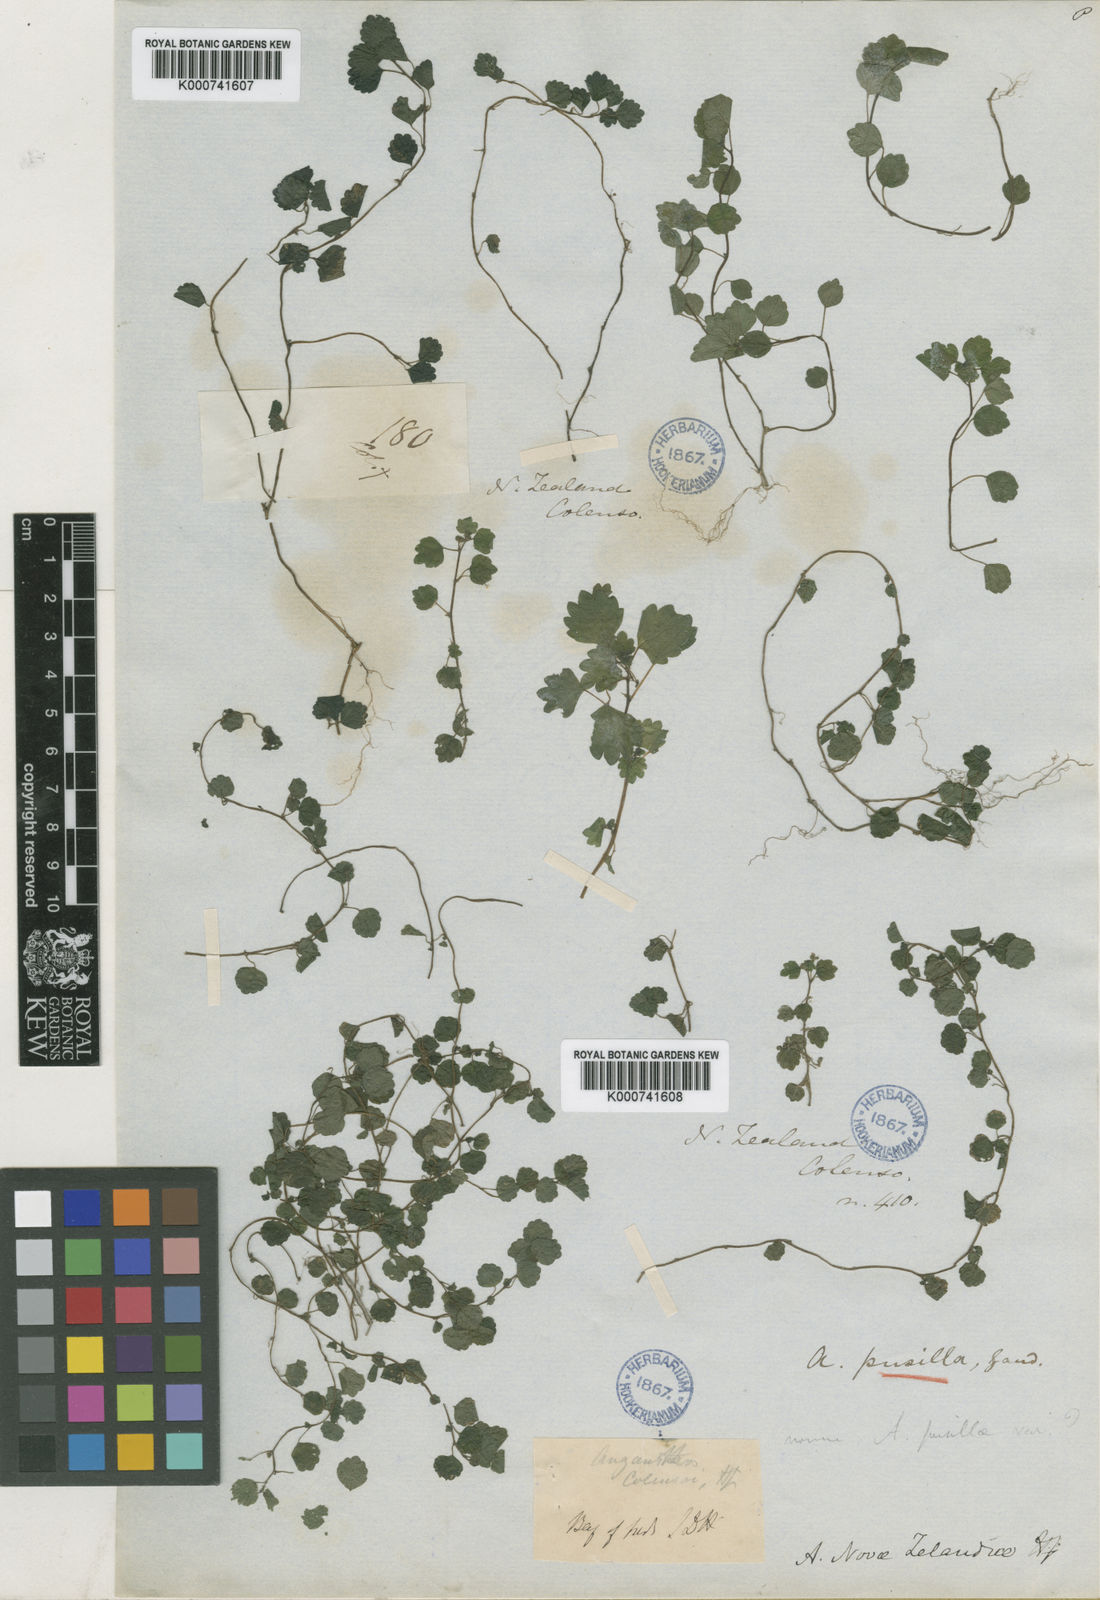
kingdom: Plantae
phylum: Tracheophyta
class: Magnoliopsida
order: Rosales
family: Urticaceae
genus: Australina
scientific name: Australina
